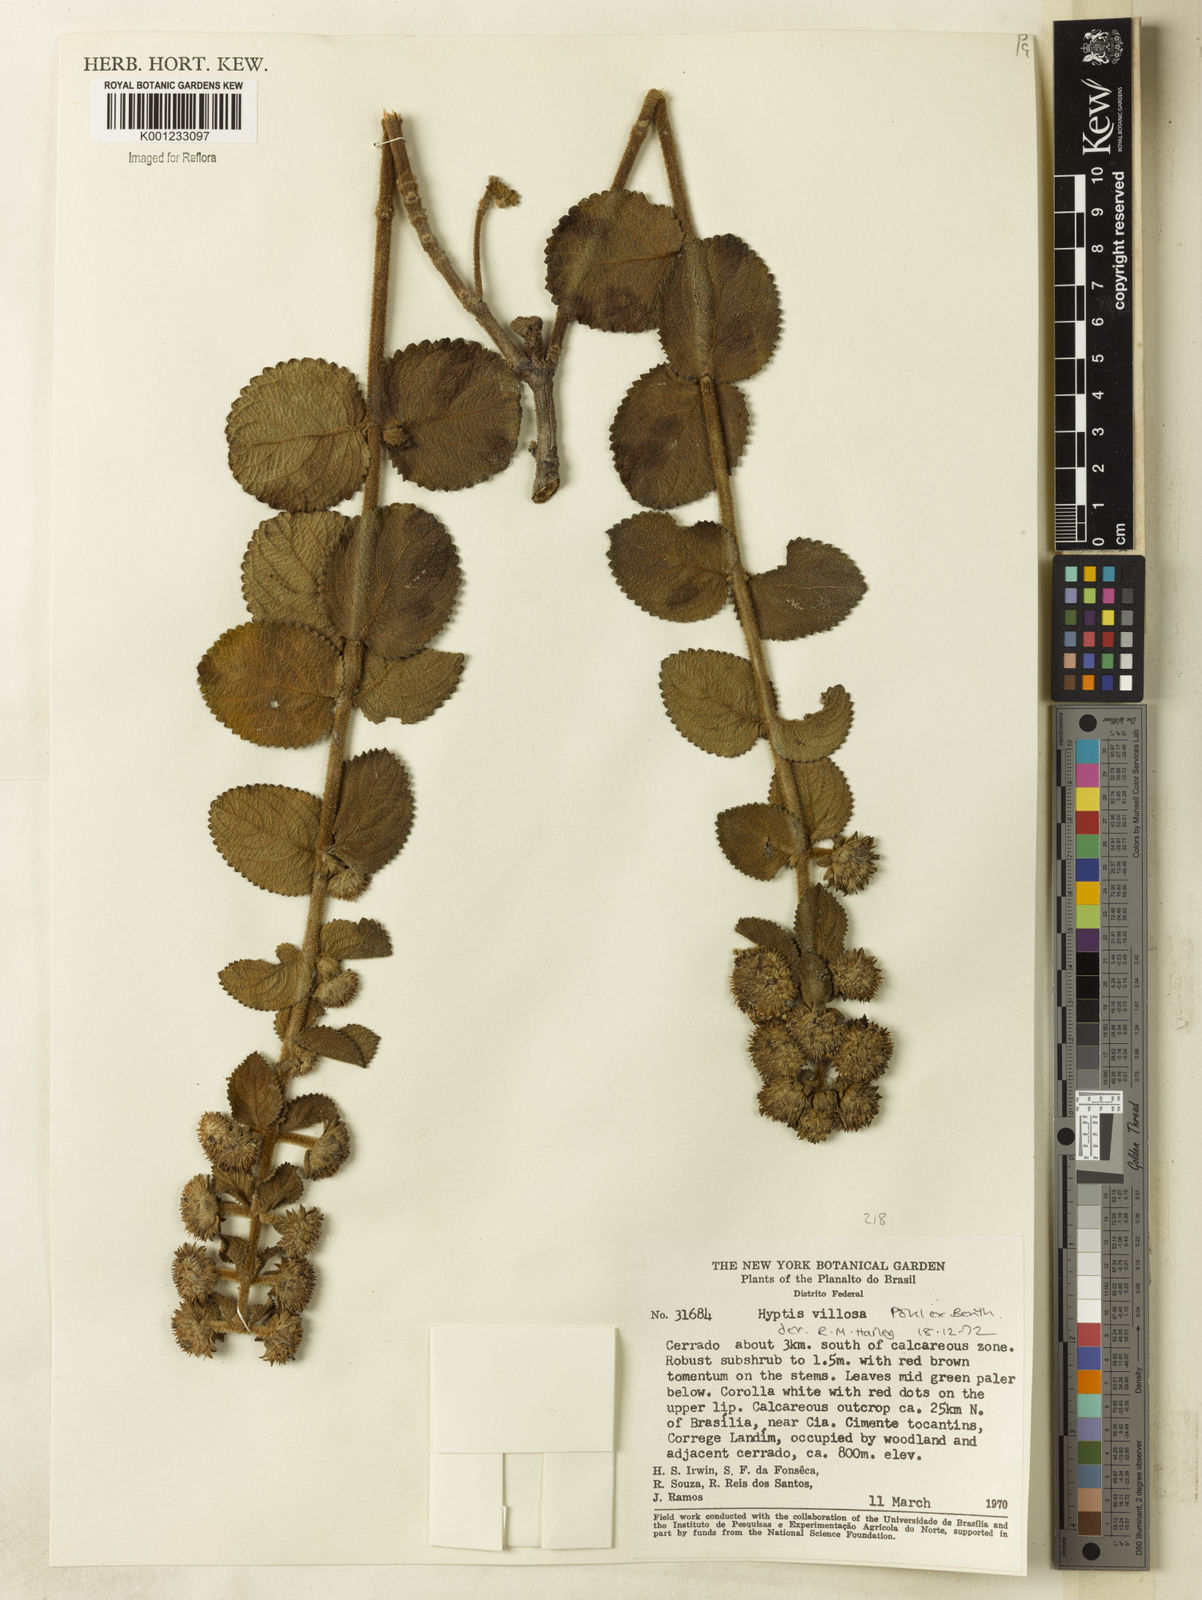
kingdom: Plantae
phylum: Tracheophyta
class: Magnoliopsida
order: Lamiales
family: Lamiaceae
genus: Hyptis
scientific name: Hyptis villosa
